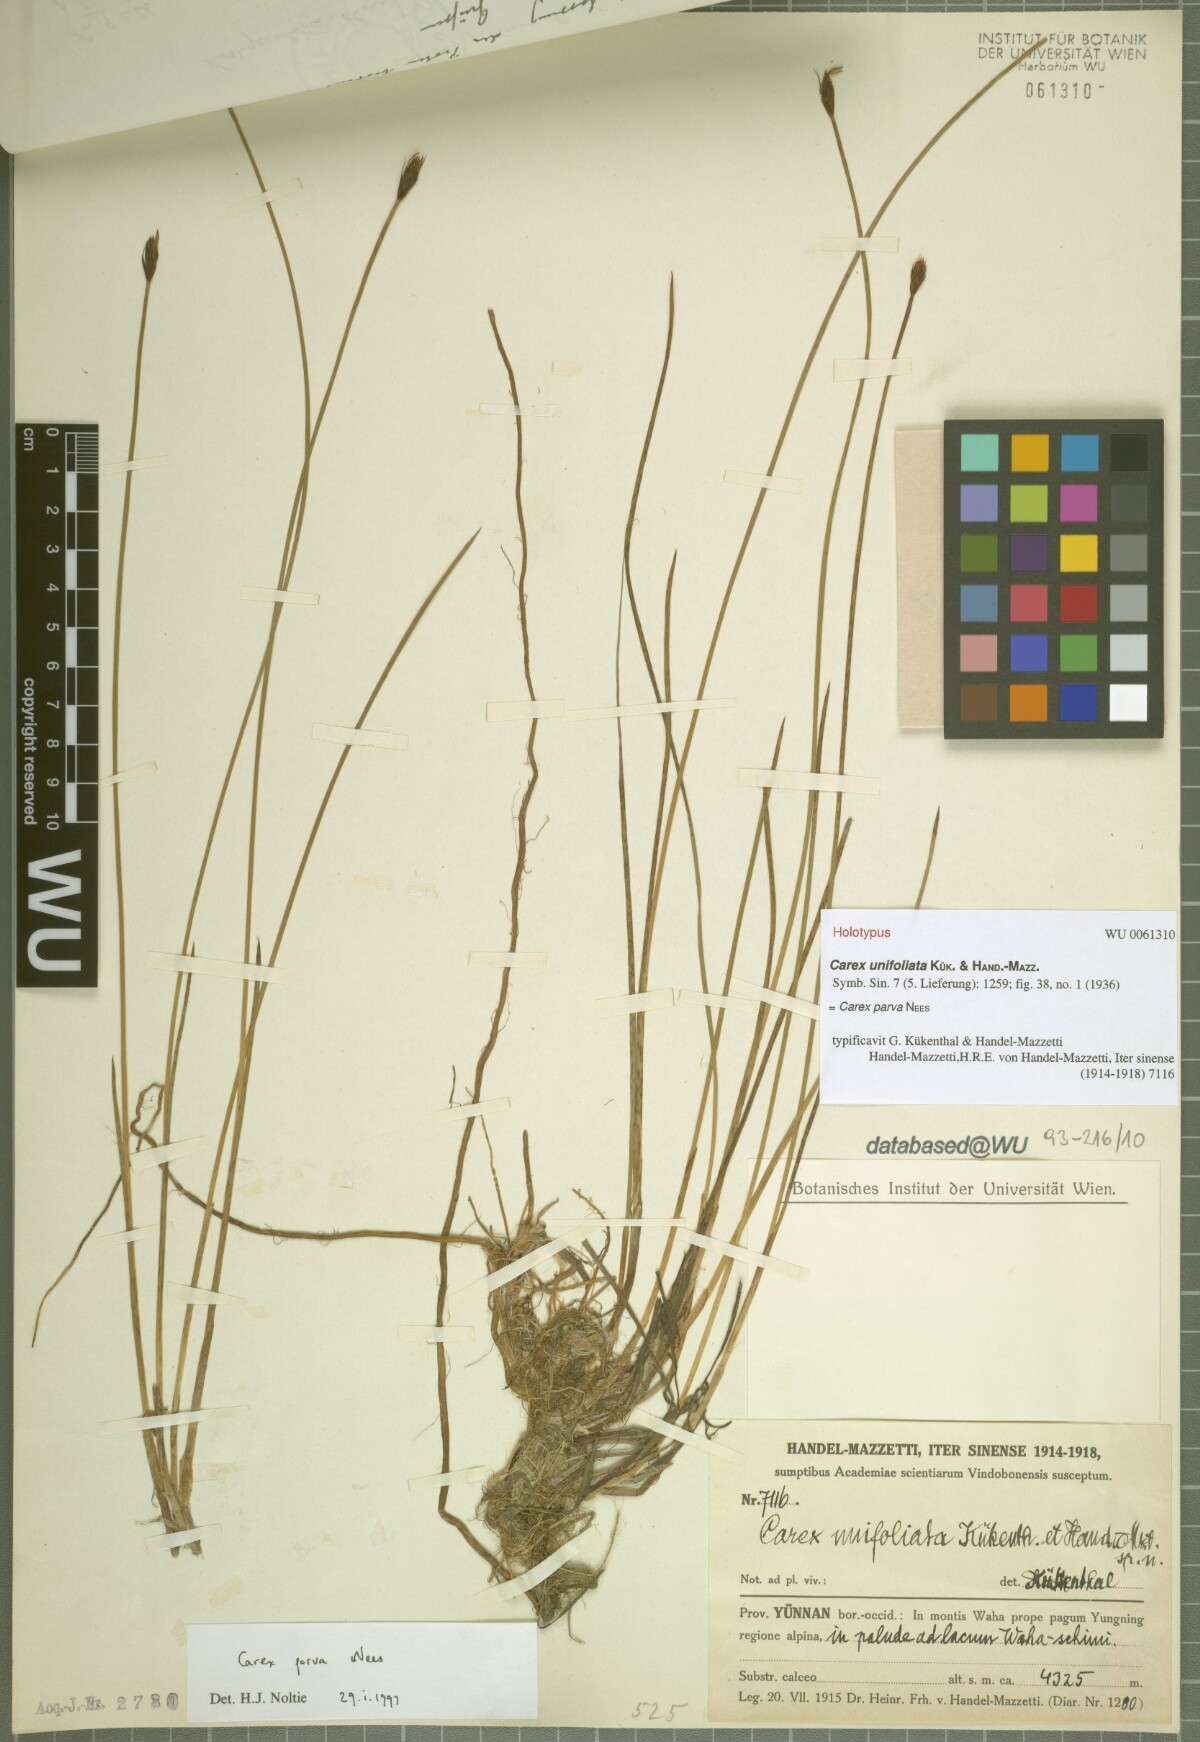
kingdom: Plantae
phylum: Tracheophyta
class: Liliopsida
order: Poales
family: Cyperaceae
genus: Carex
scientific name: Carex parva
